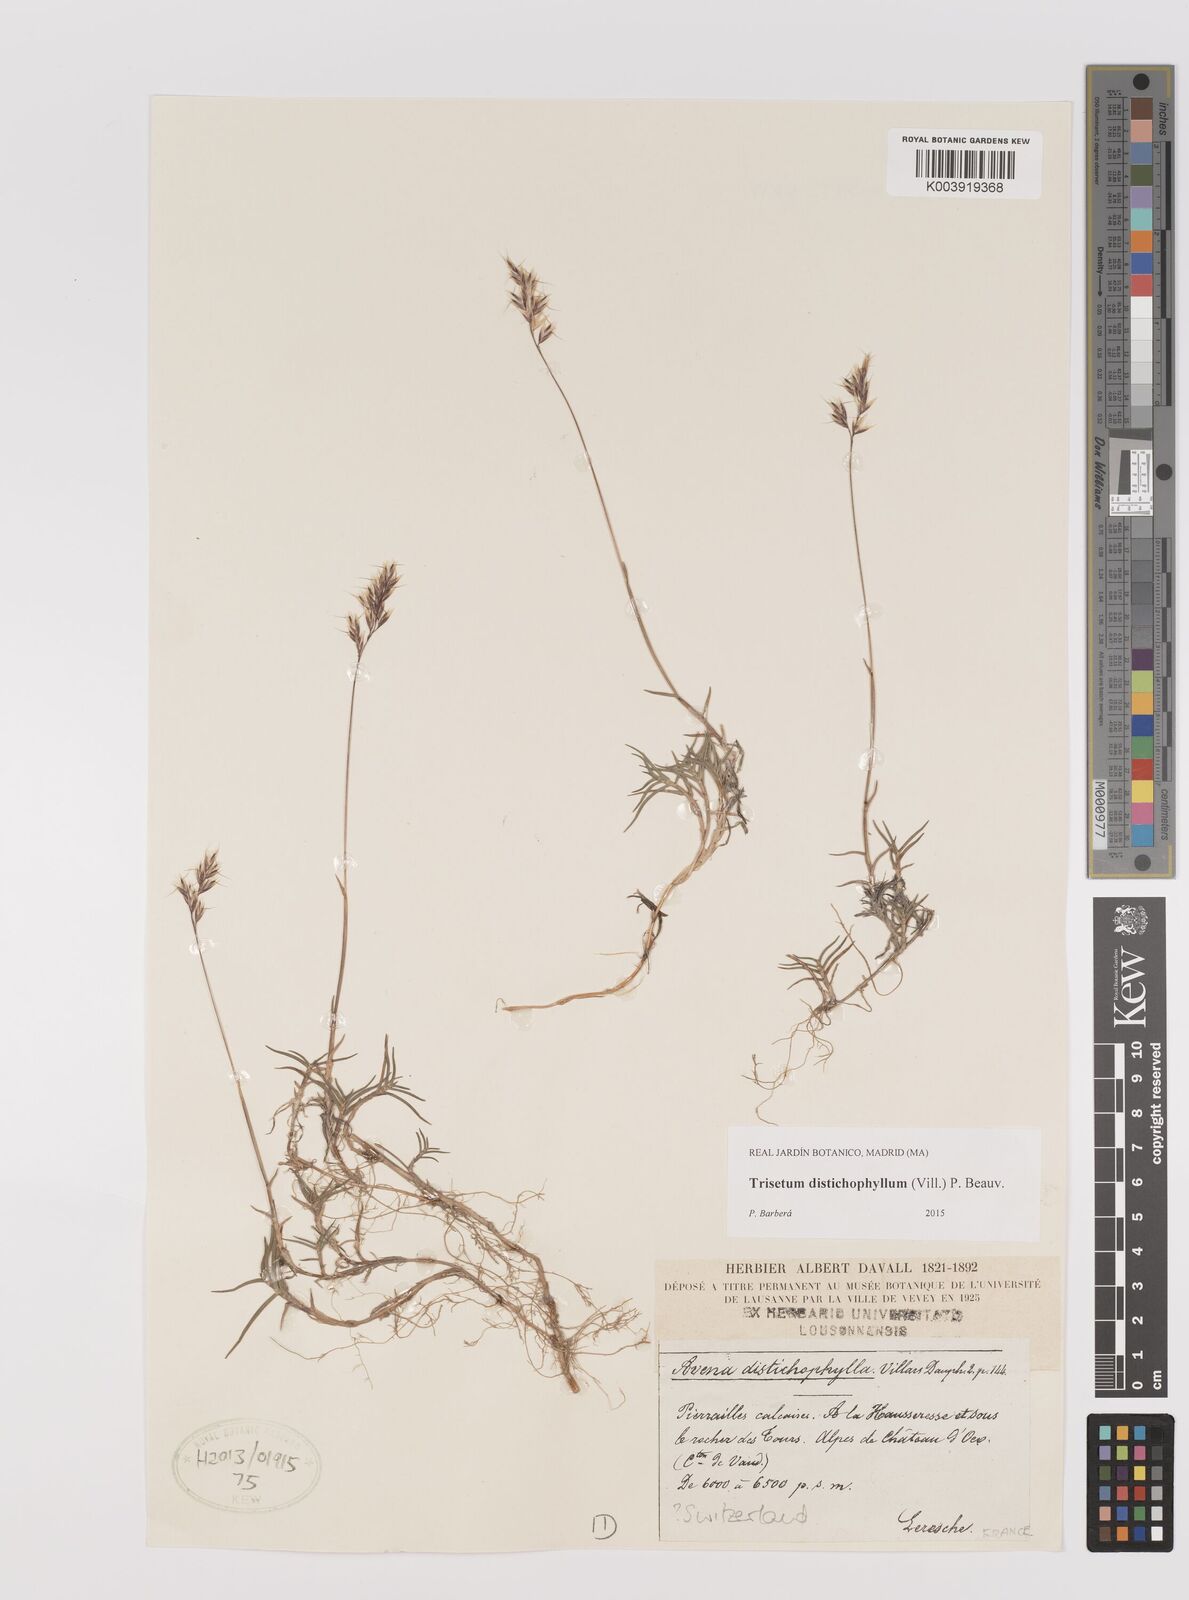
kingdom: Plantae
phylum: Tracheophyta
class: Liliopsida
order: Poales
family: Poaceae
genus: Acrospelion
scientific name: Acrospelion distichophyllum
